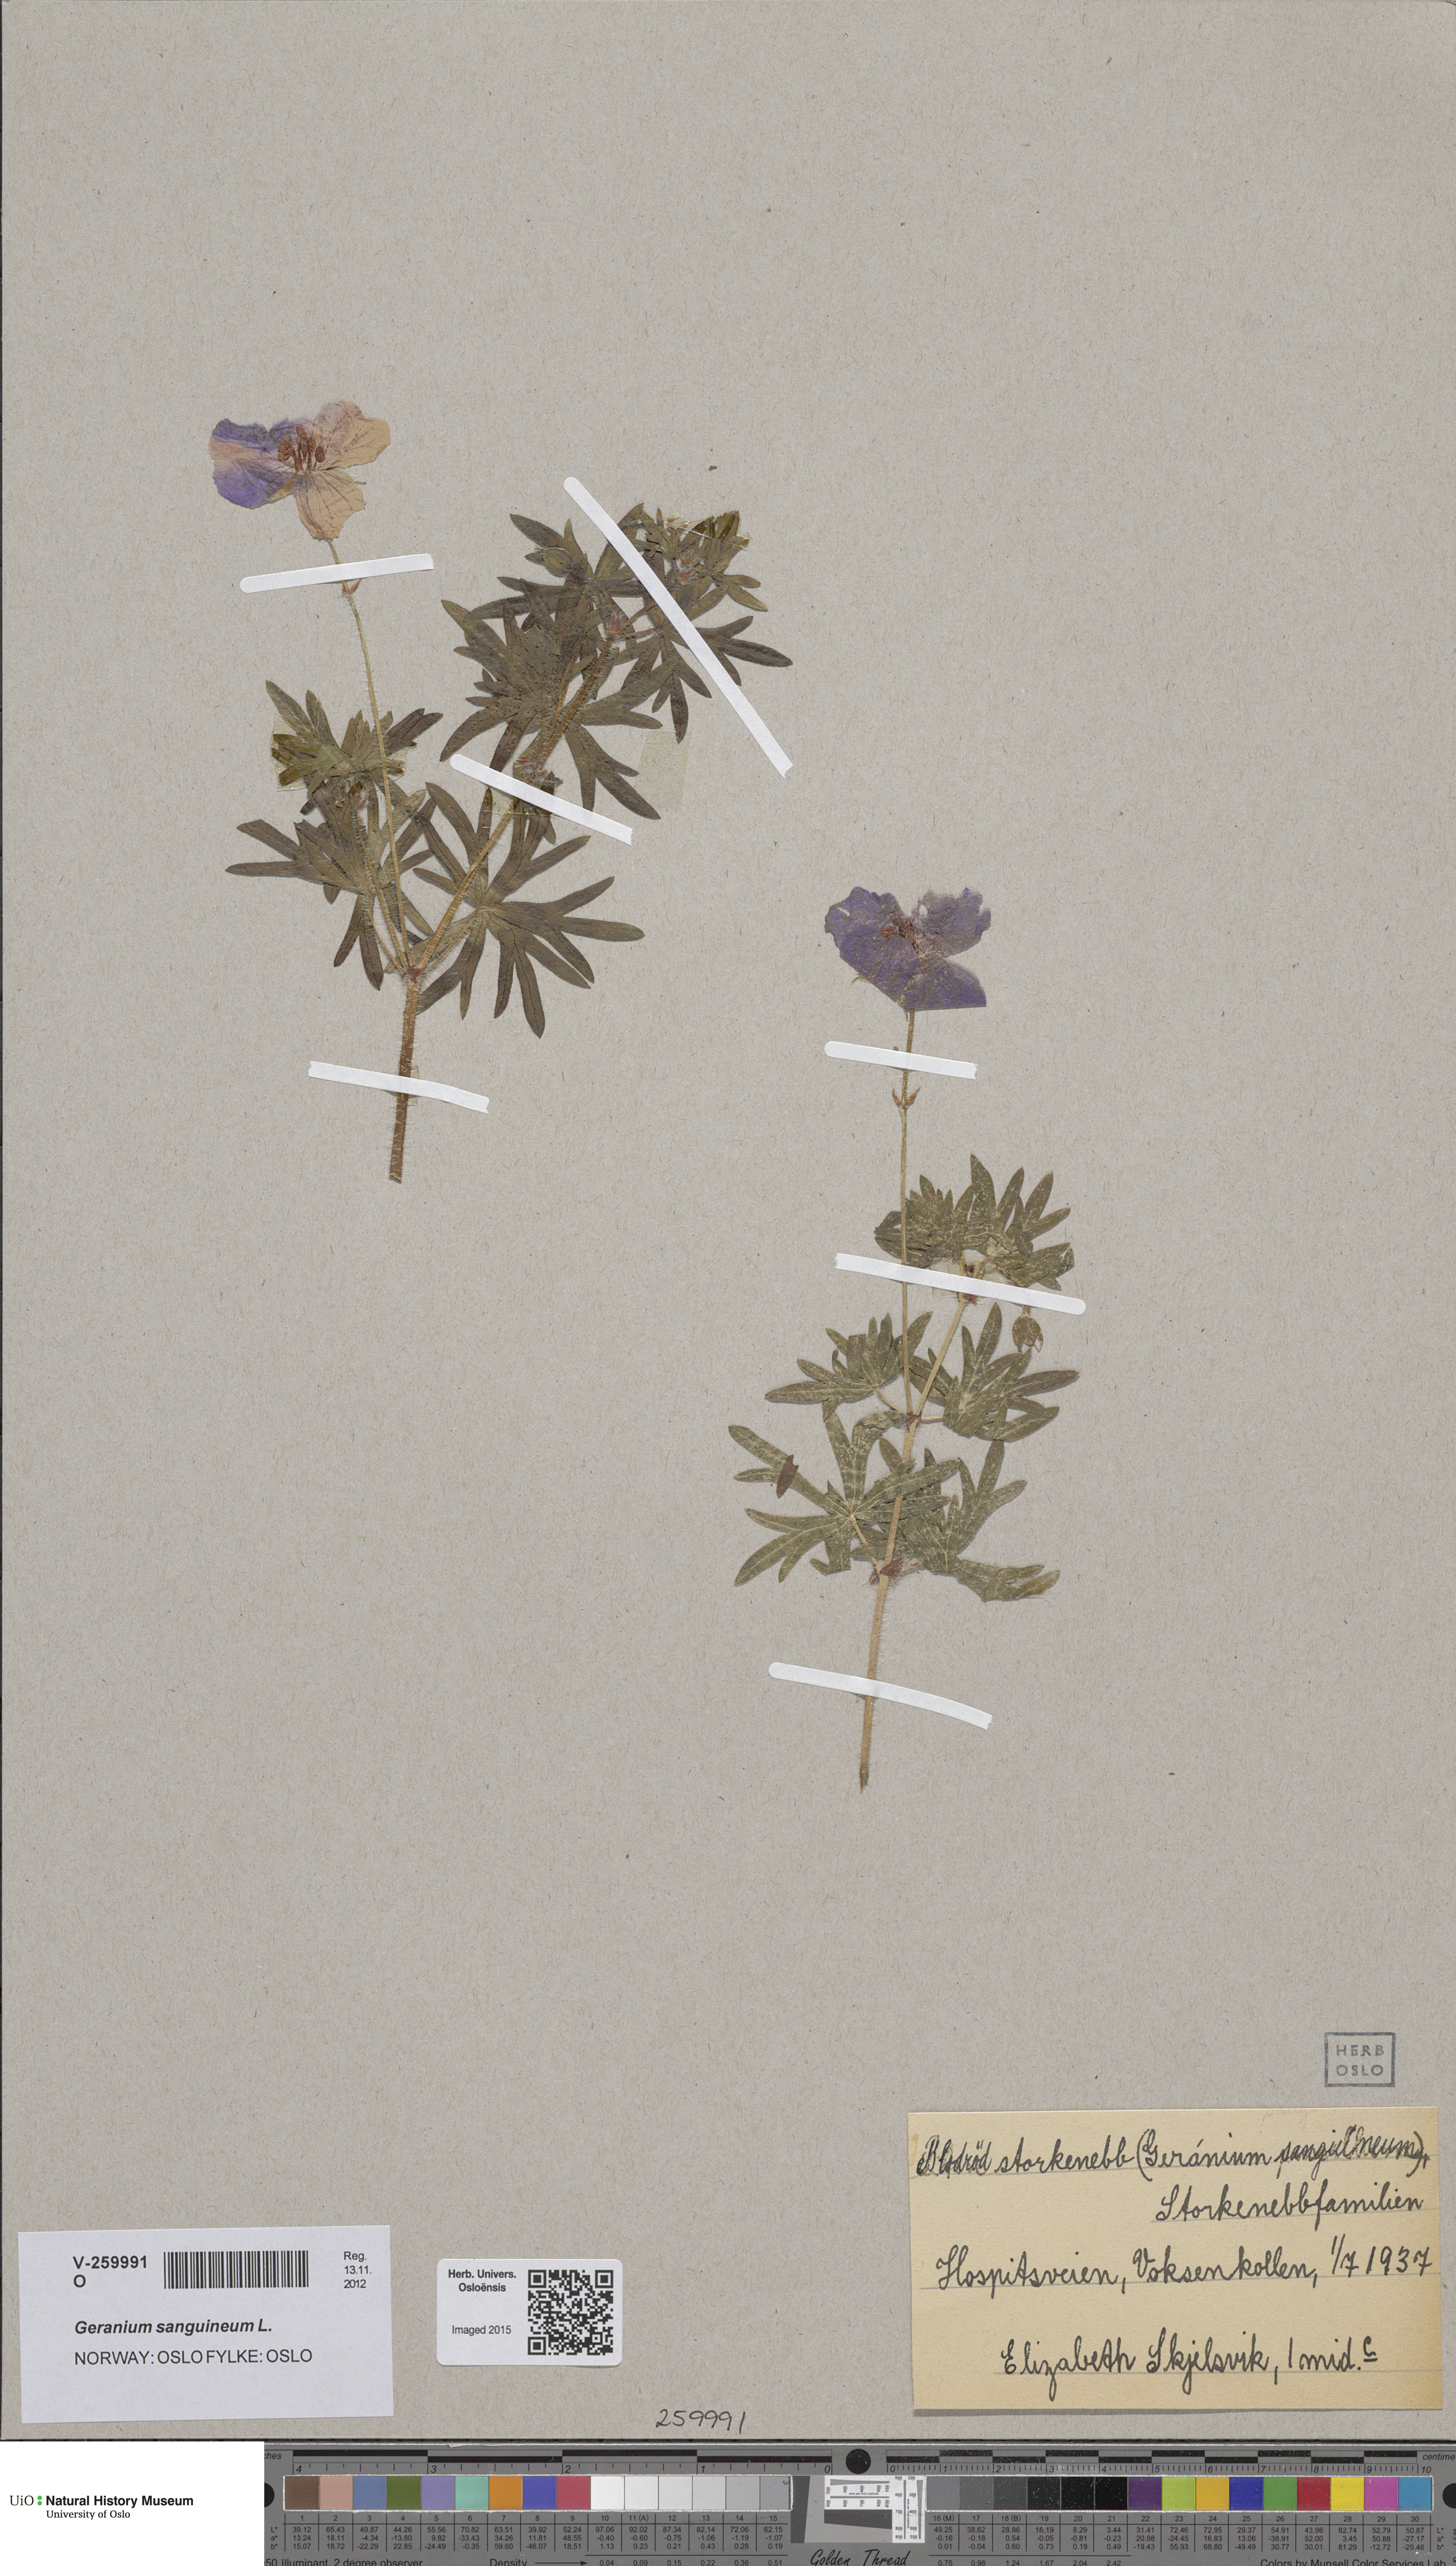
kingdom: Plantae
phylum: Tracheophyta
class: Magnoliopsida
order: Geraniales
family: Geraniaceae
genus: Geranium
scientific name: Geranium sanguineum
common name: Bloody crane's-bill
